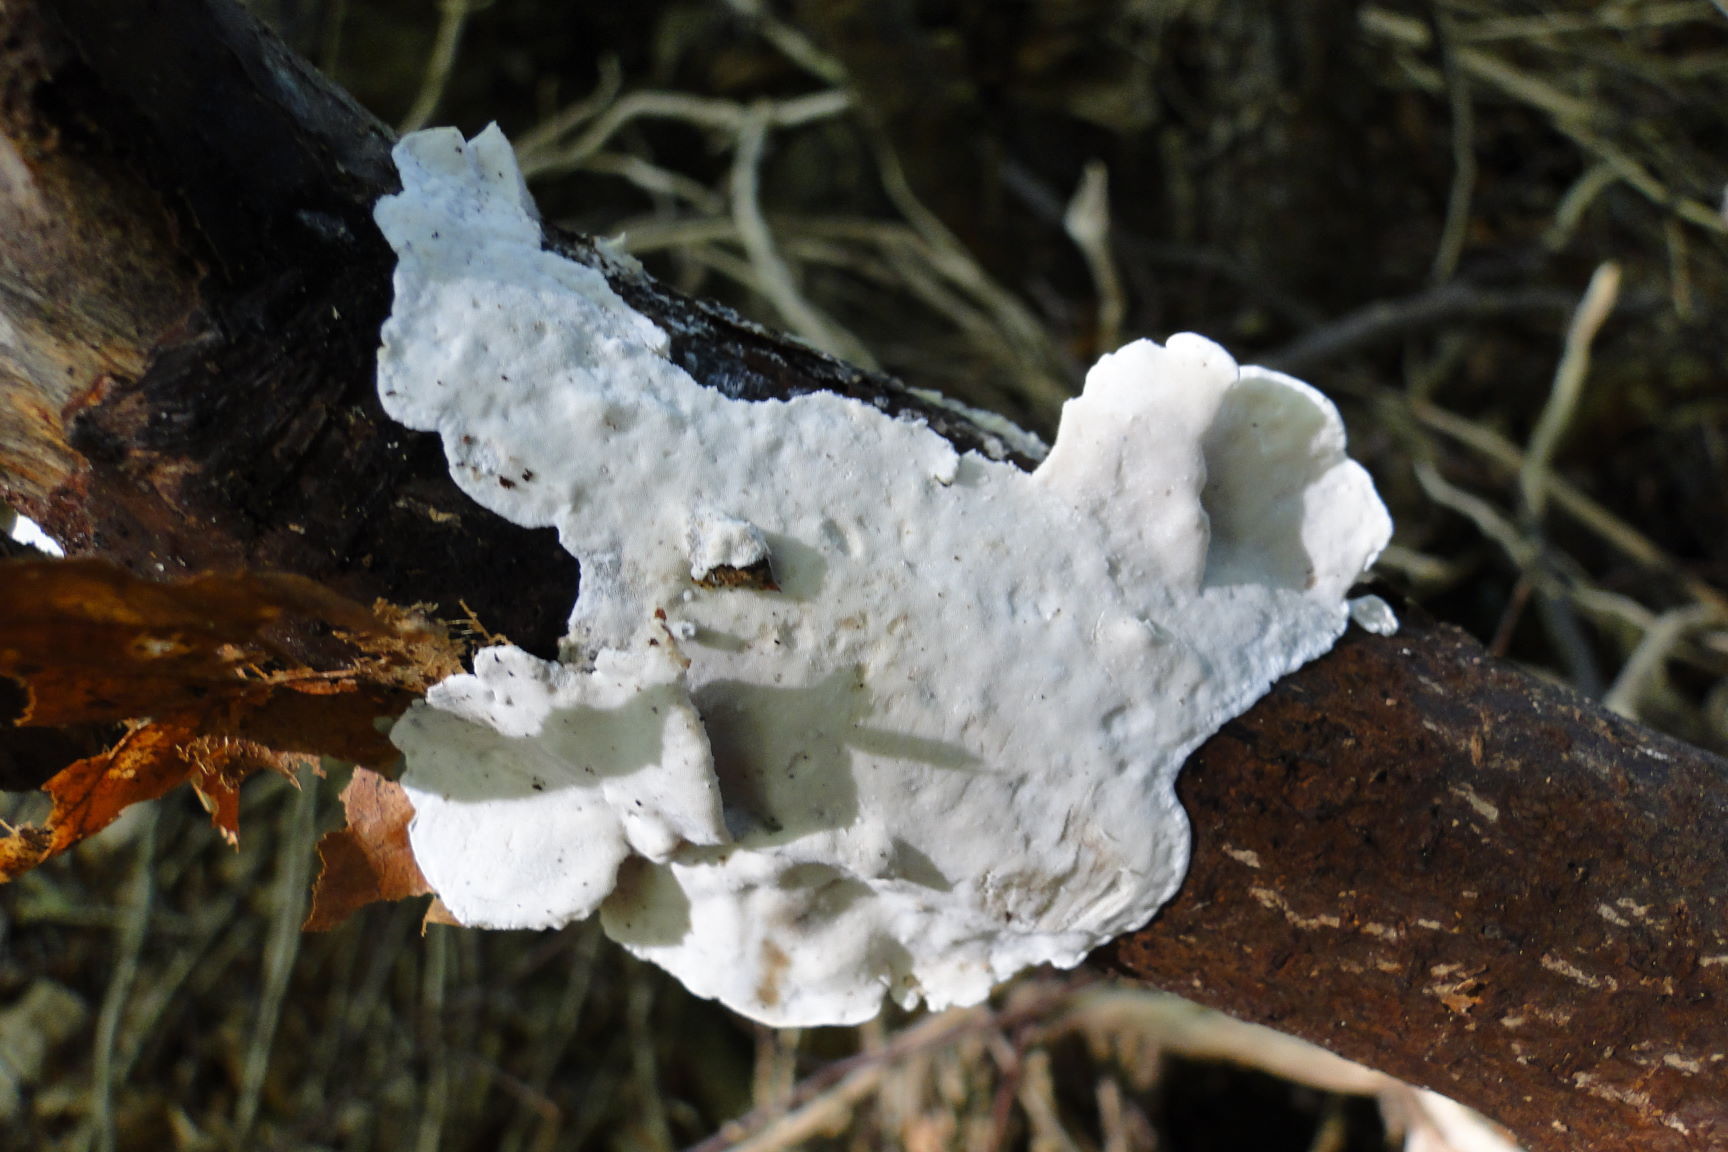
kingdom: Fungi
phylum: Basidiomycota
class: Agaricomycetes
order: Polyporales
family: Incrustoporiaceae
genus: Skeletocutis
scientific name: Skeletocutis nemoralis
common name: stor krystalporesvamp
